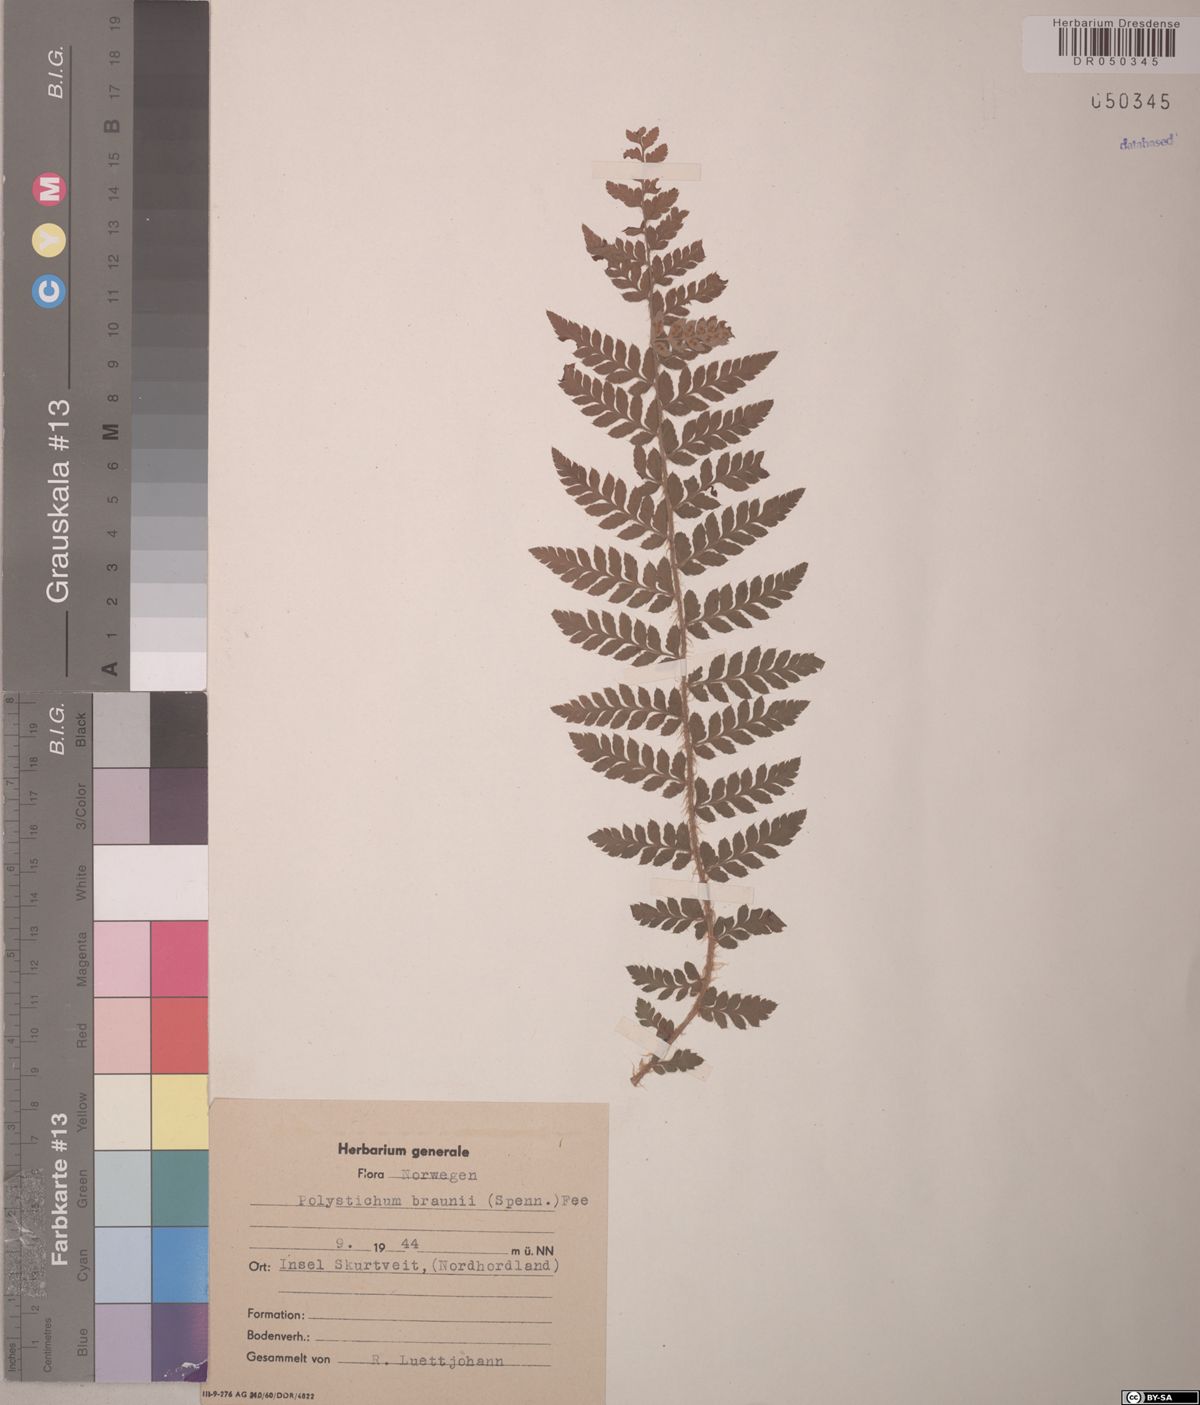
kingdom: Plantae
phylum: Tracheophyta
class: Polypodiopsida
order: Polypodiales
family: Dryopteridaceae
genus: Polystichum
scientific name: Polystichum braunii
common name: Braun's holly fern
